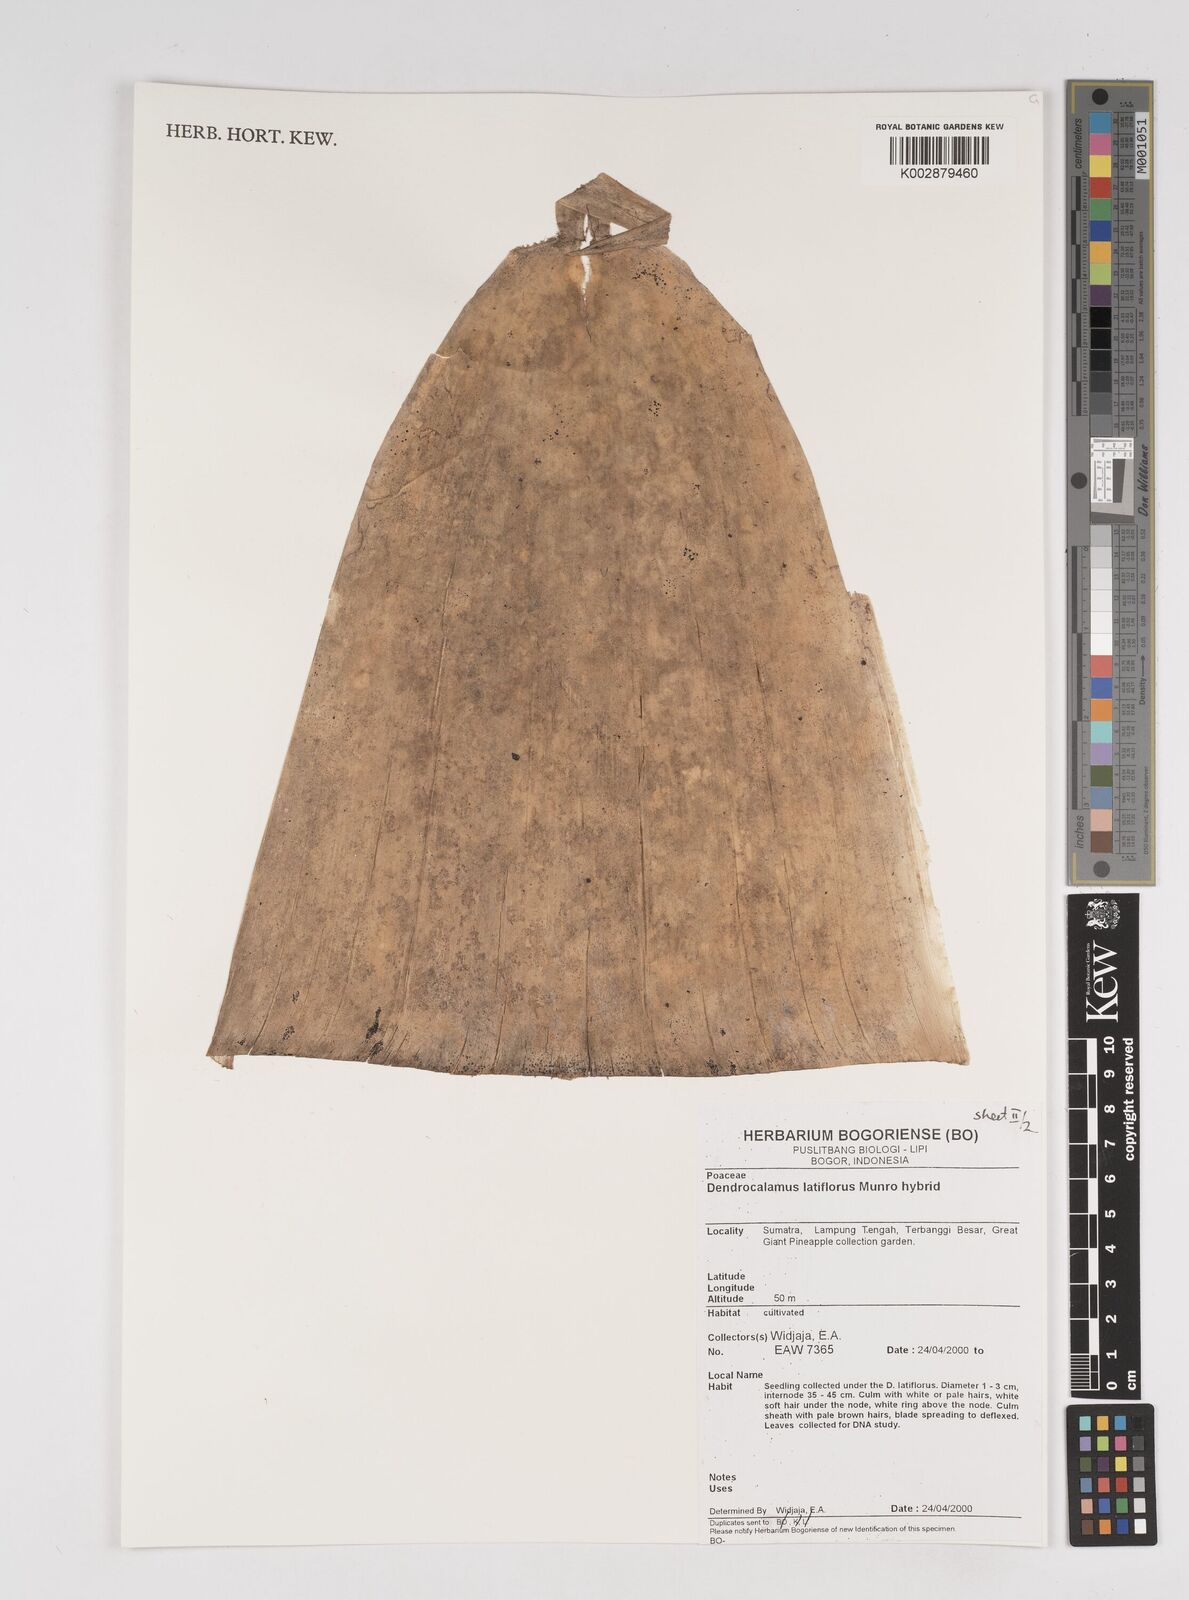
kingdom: Plantae
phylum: Tracheophyta
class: Liliopsida
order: Poales
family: Poaceae
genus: Dendrocalamus
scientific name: Dendrocalamus latiflorus
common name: Giant bamboo
